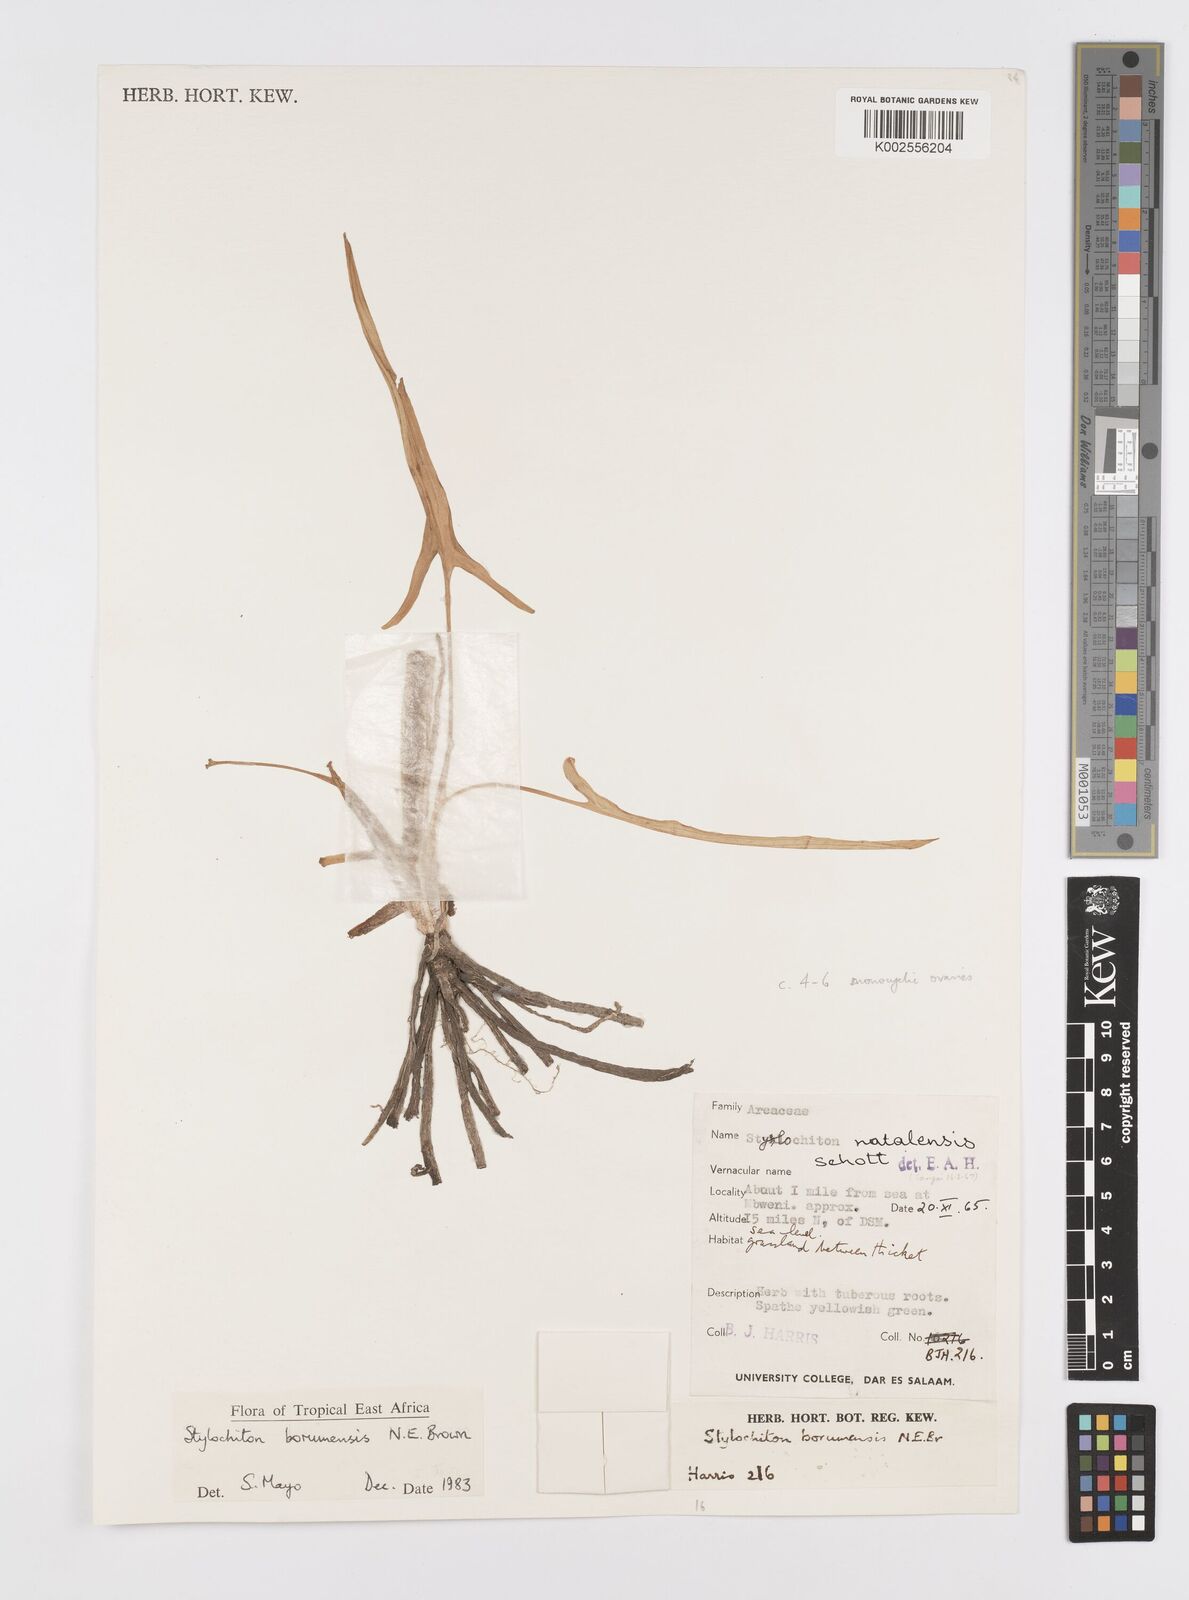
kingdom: Plantae
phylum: Tracheophyta
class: Liliopsida
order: Alismatales
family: Araceae
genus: Stylochaeton
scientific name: Stylochaeton borumense
